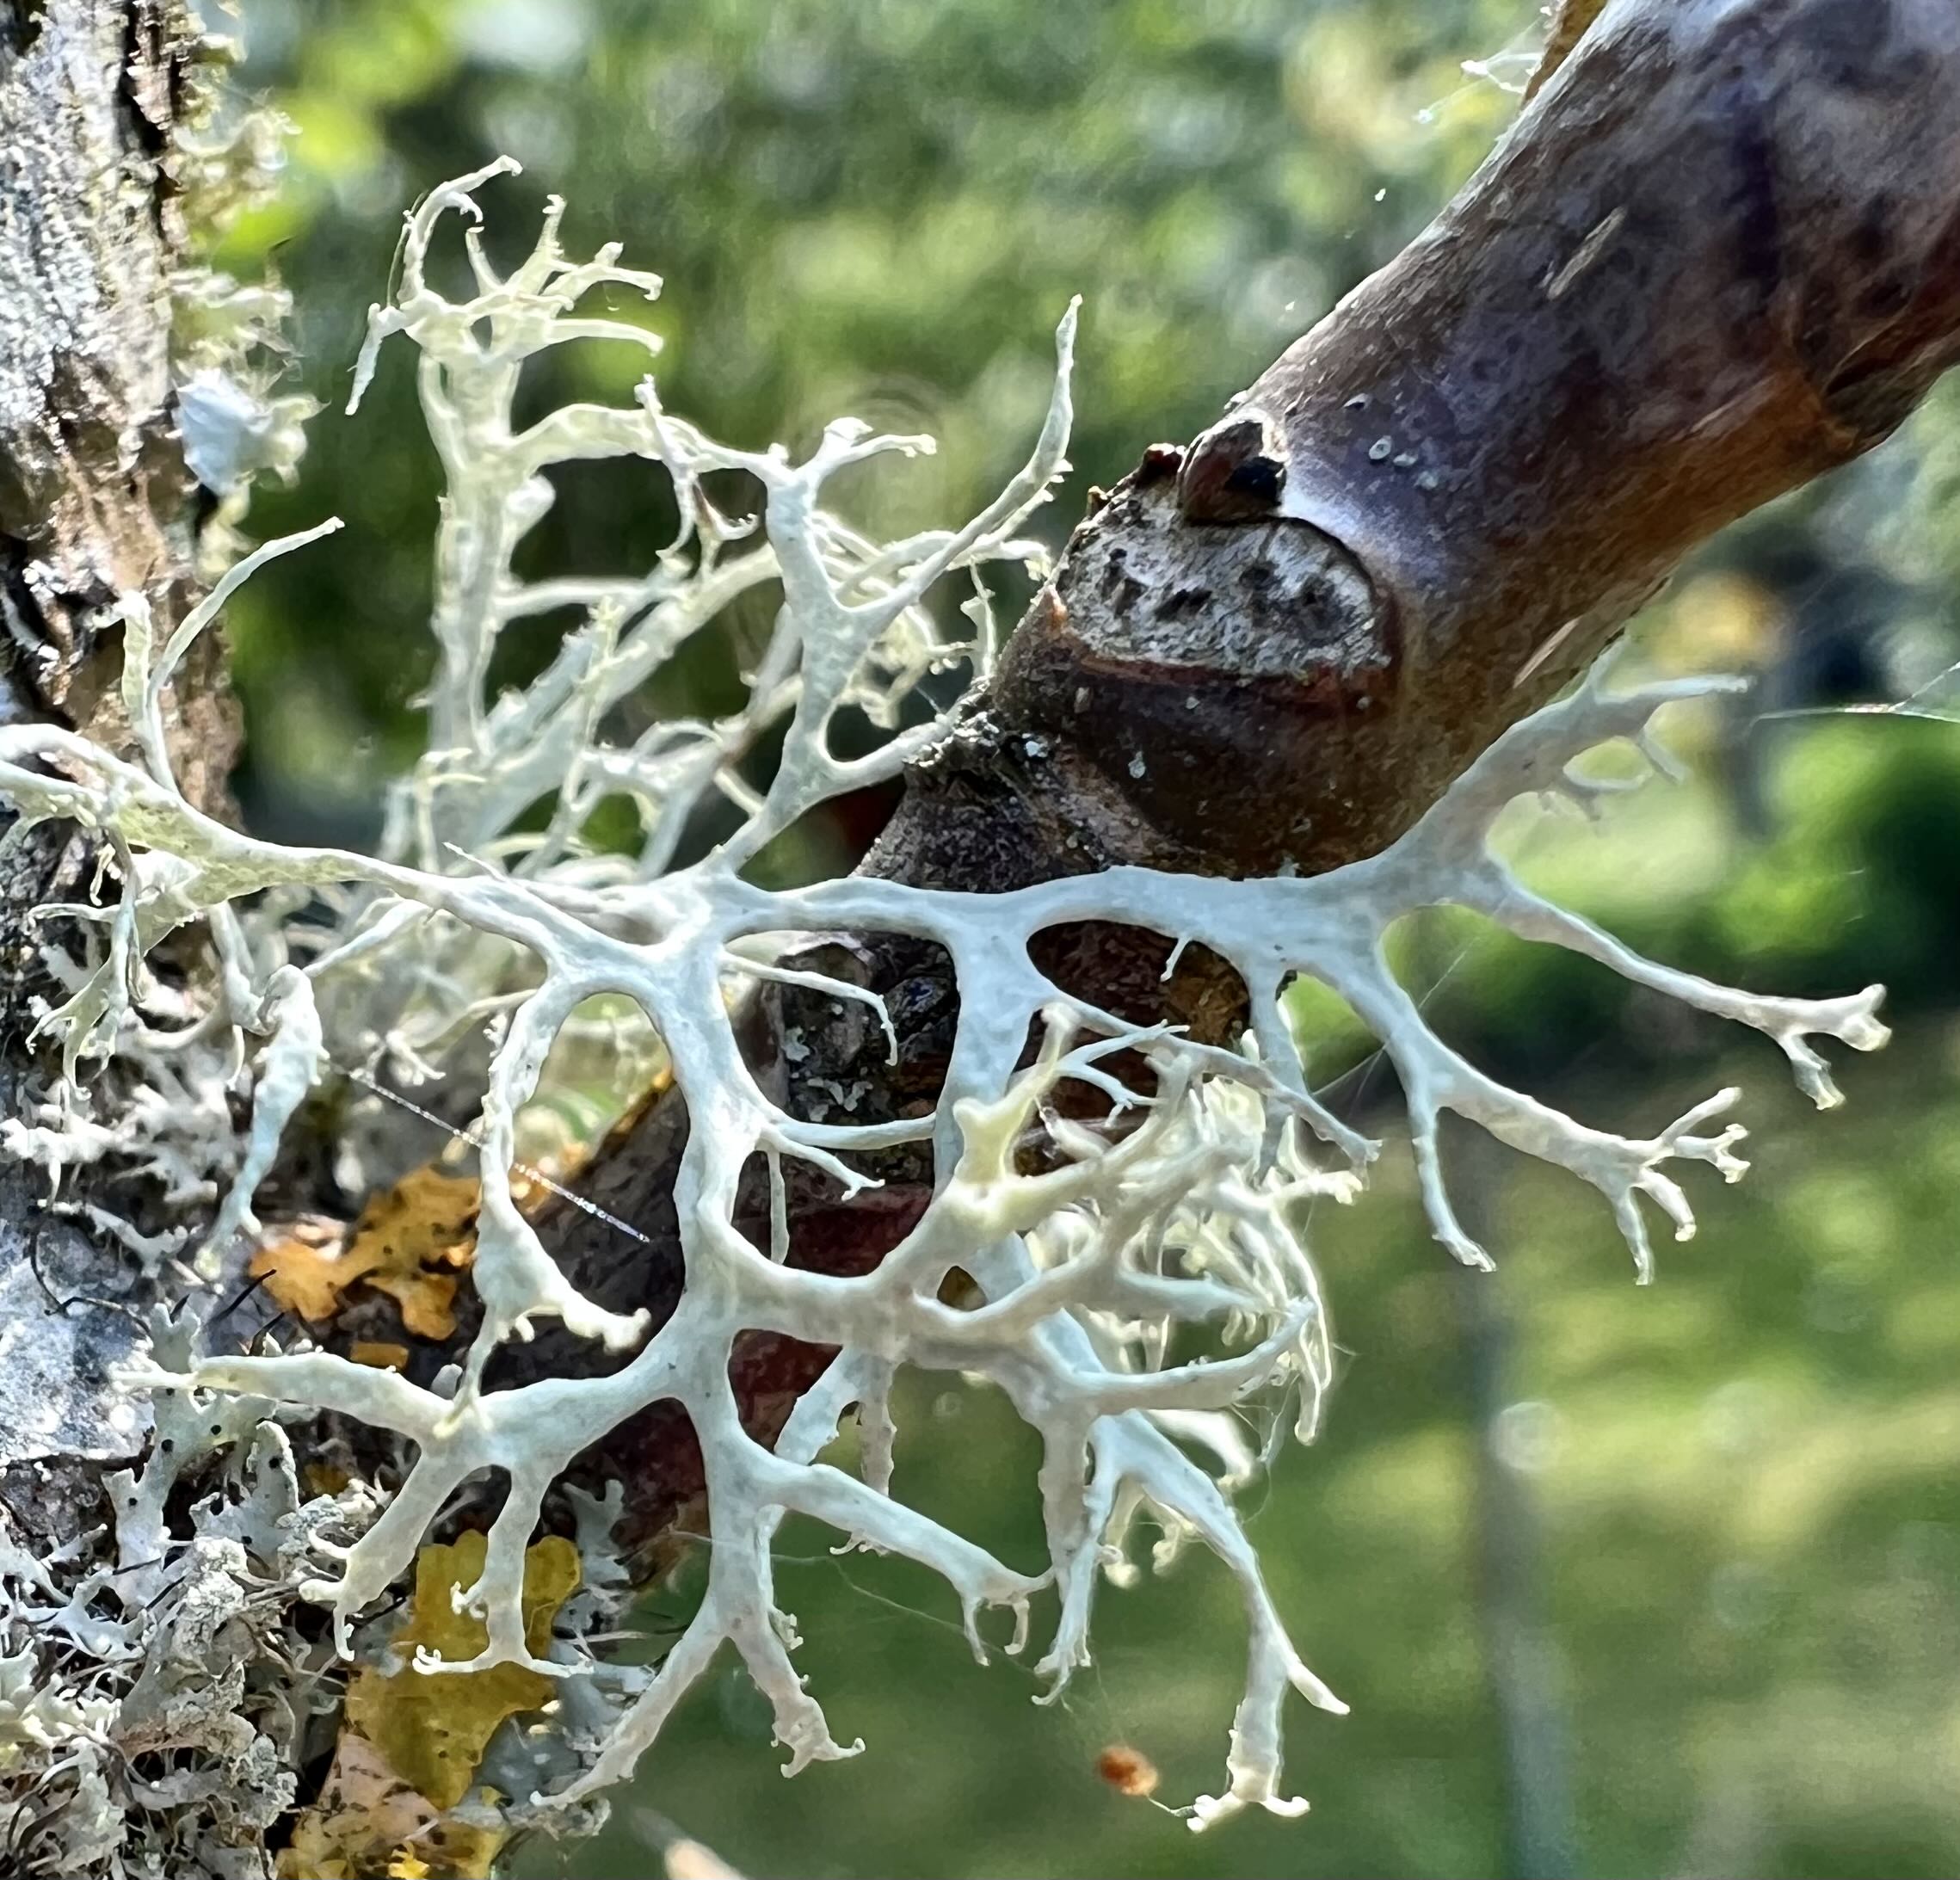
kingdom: Fungi
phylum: Ascomycota
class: Lecanoromycetes
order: Lecanorales
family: Parmeliaceae
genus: Evernia
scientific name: Evernia prunastri
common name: almindelig slåenlav
